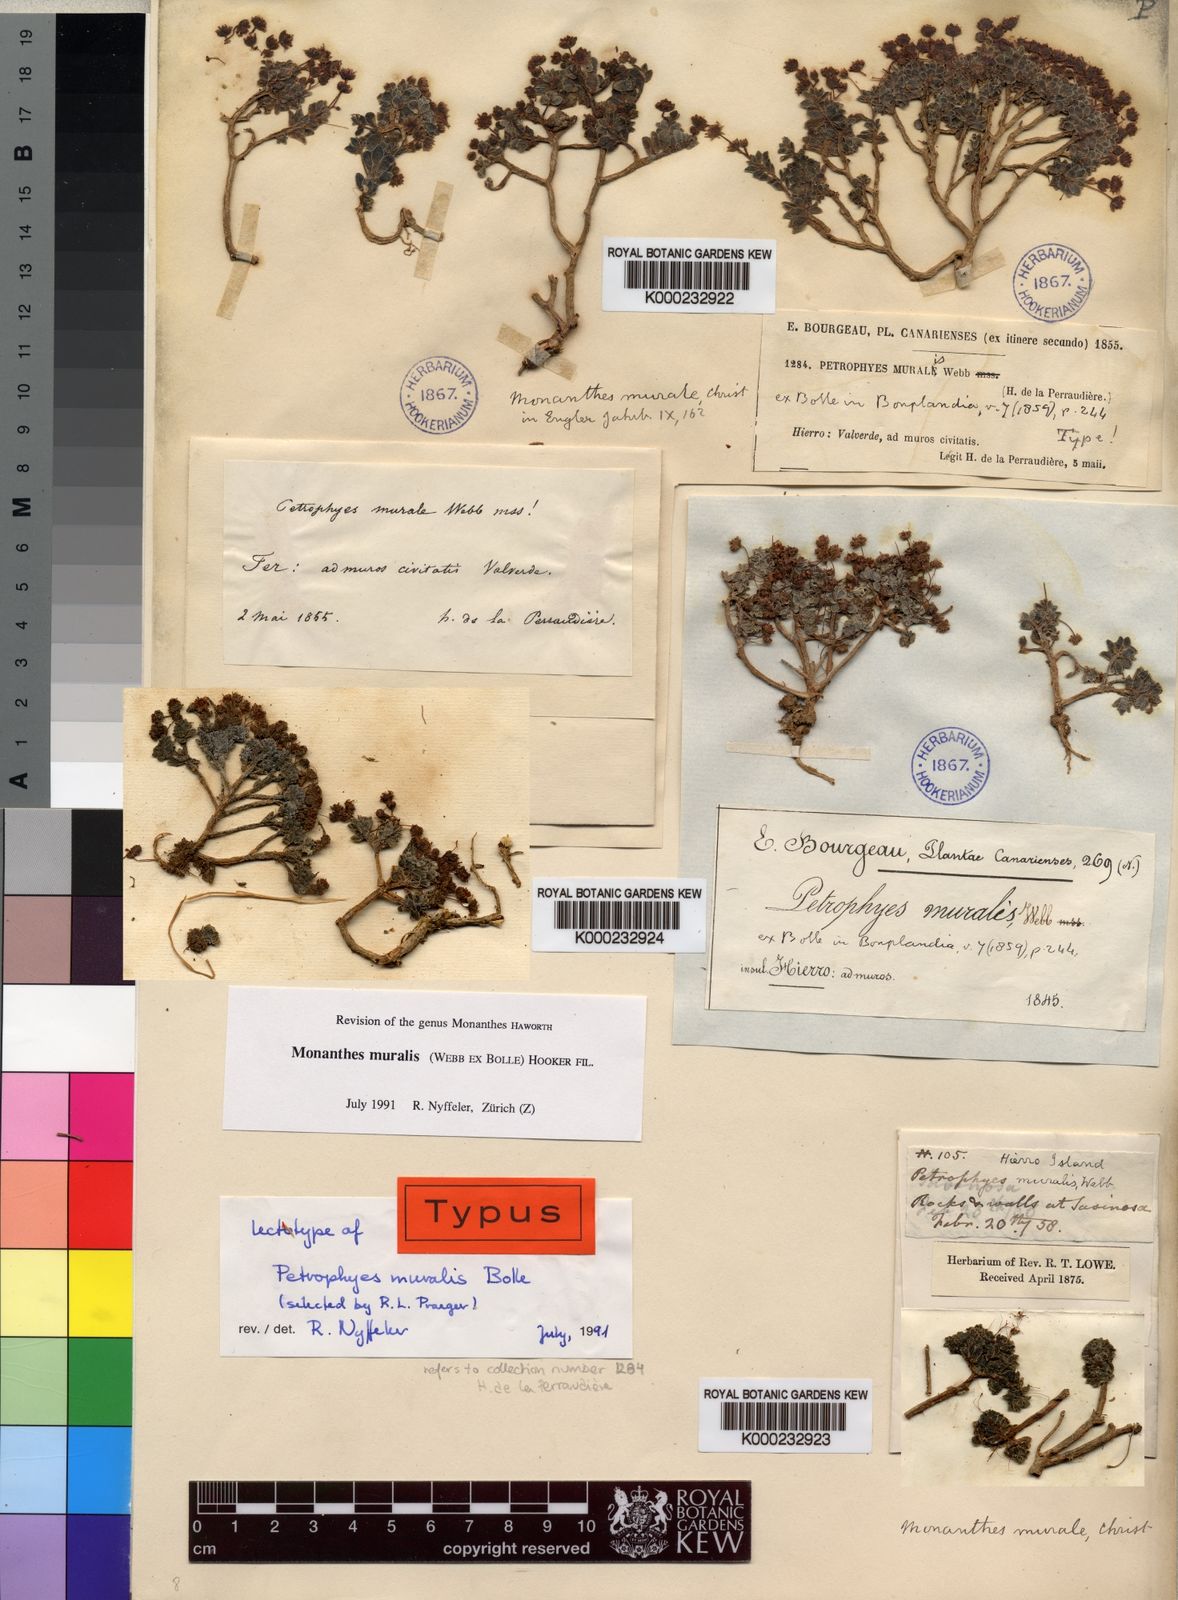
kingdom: Plantae
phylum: Tracheophyta
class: Magnoliopsida
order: Saxifragales
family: Crassulaceae
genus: Monanthes
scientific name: Monanthes atlantica
